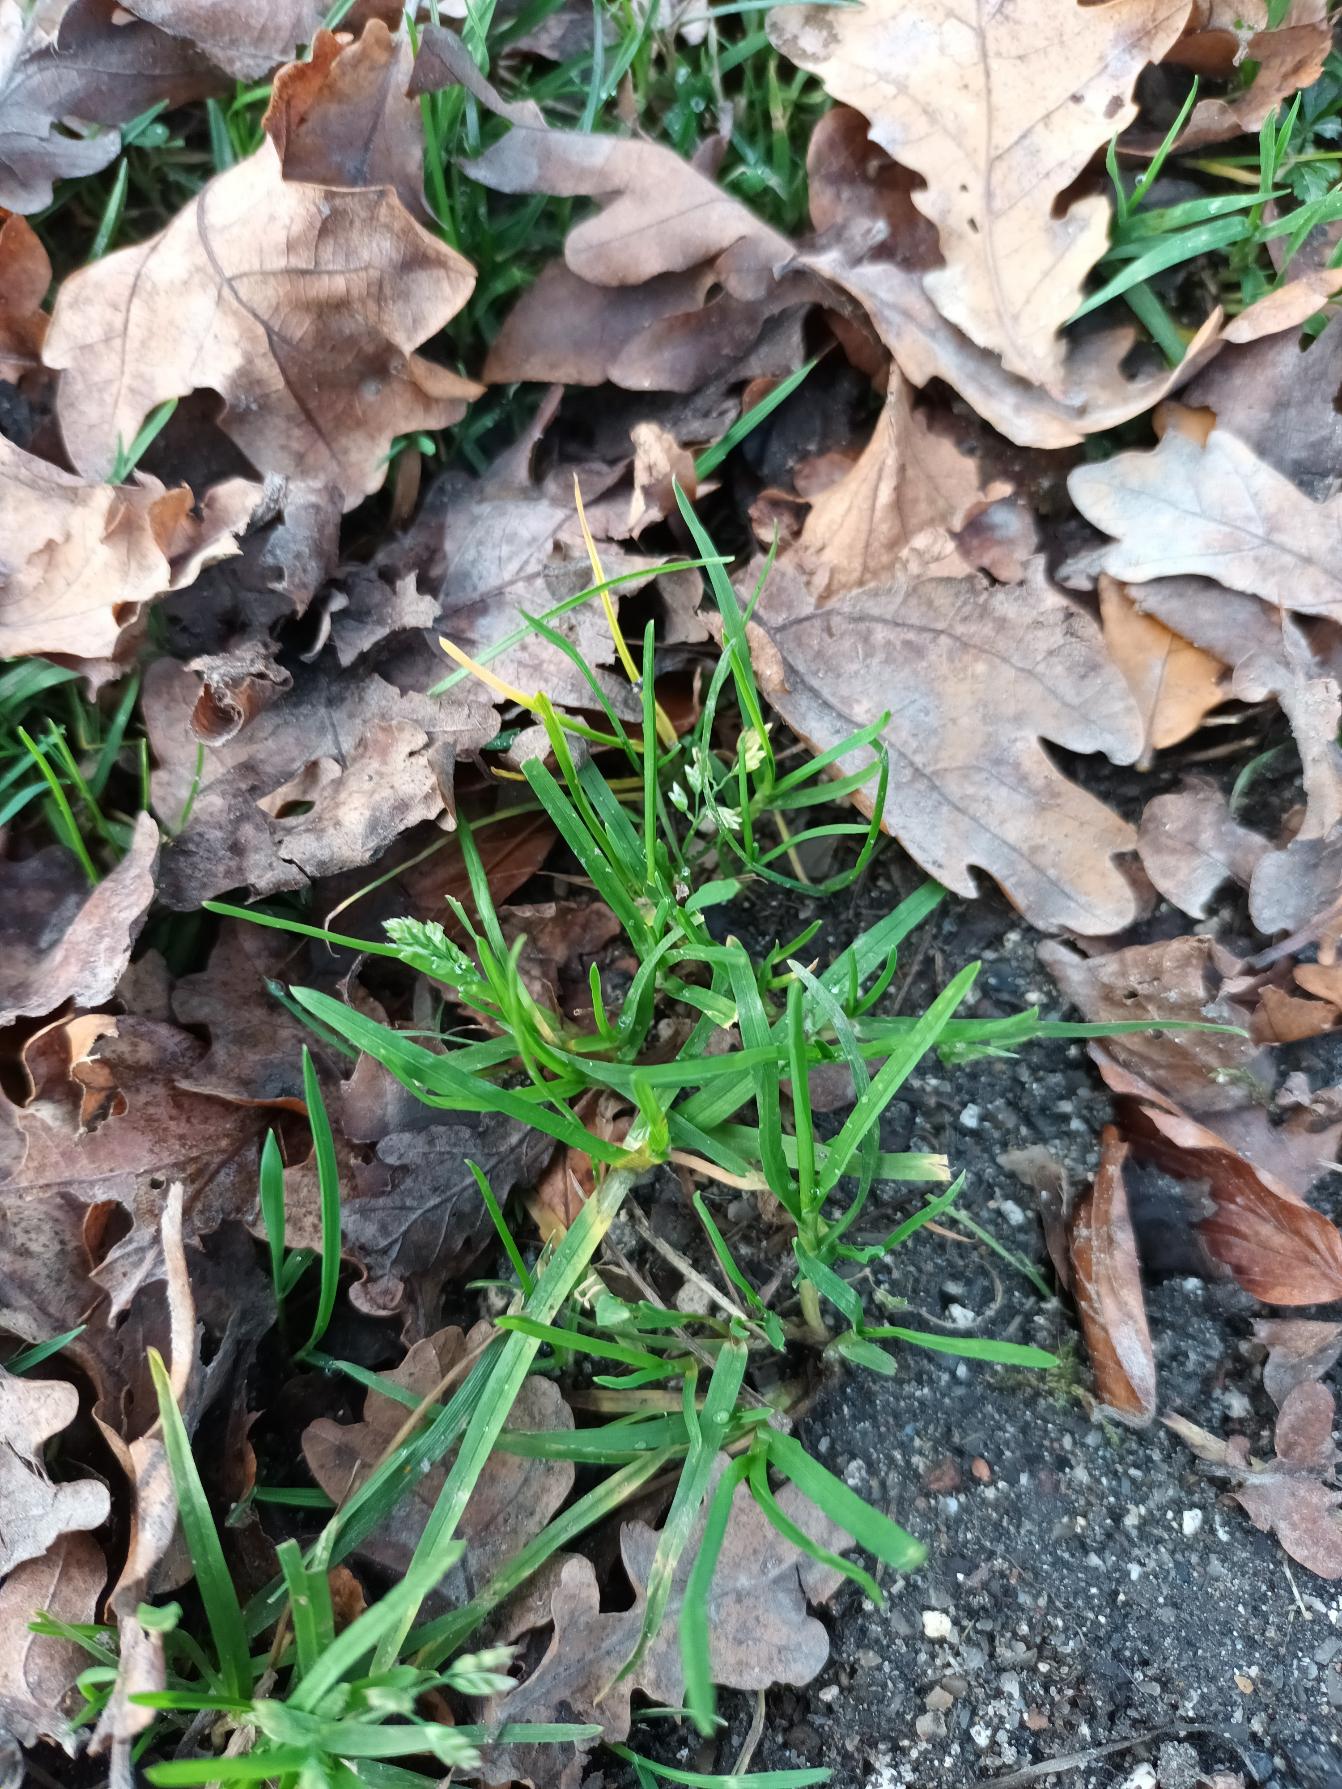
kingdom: Plantae
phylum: Tracheophyta
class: Liliopsida
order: Poales
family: Poaceae
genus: Poa
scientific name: Poa annua
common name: Enårig rapgræs
